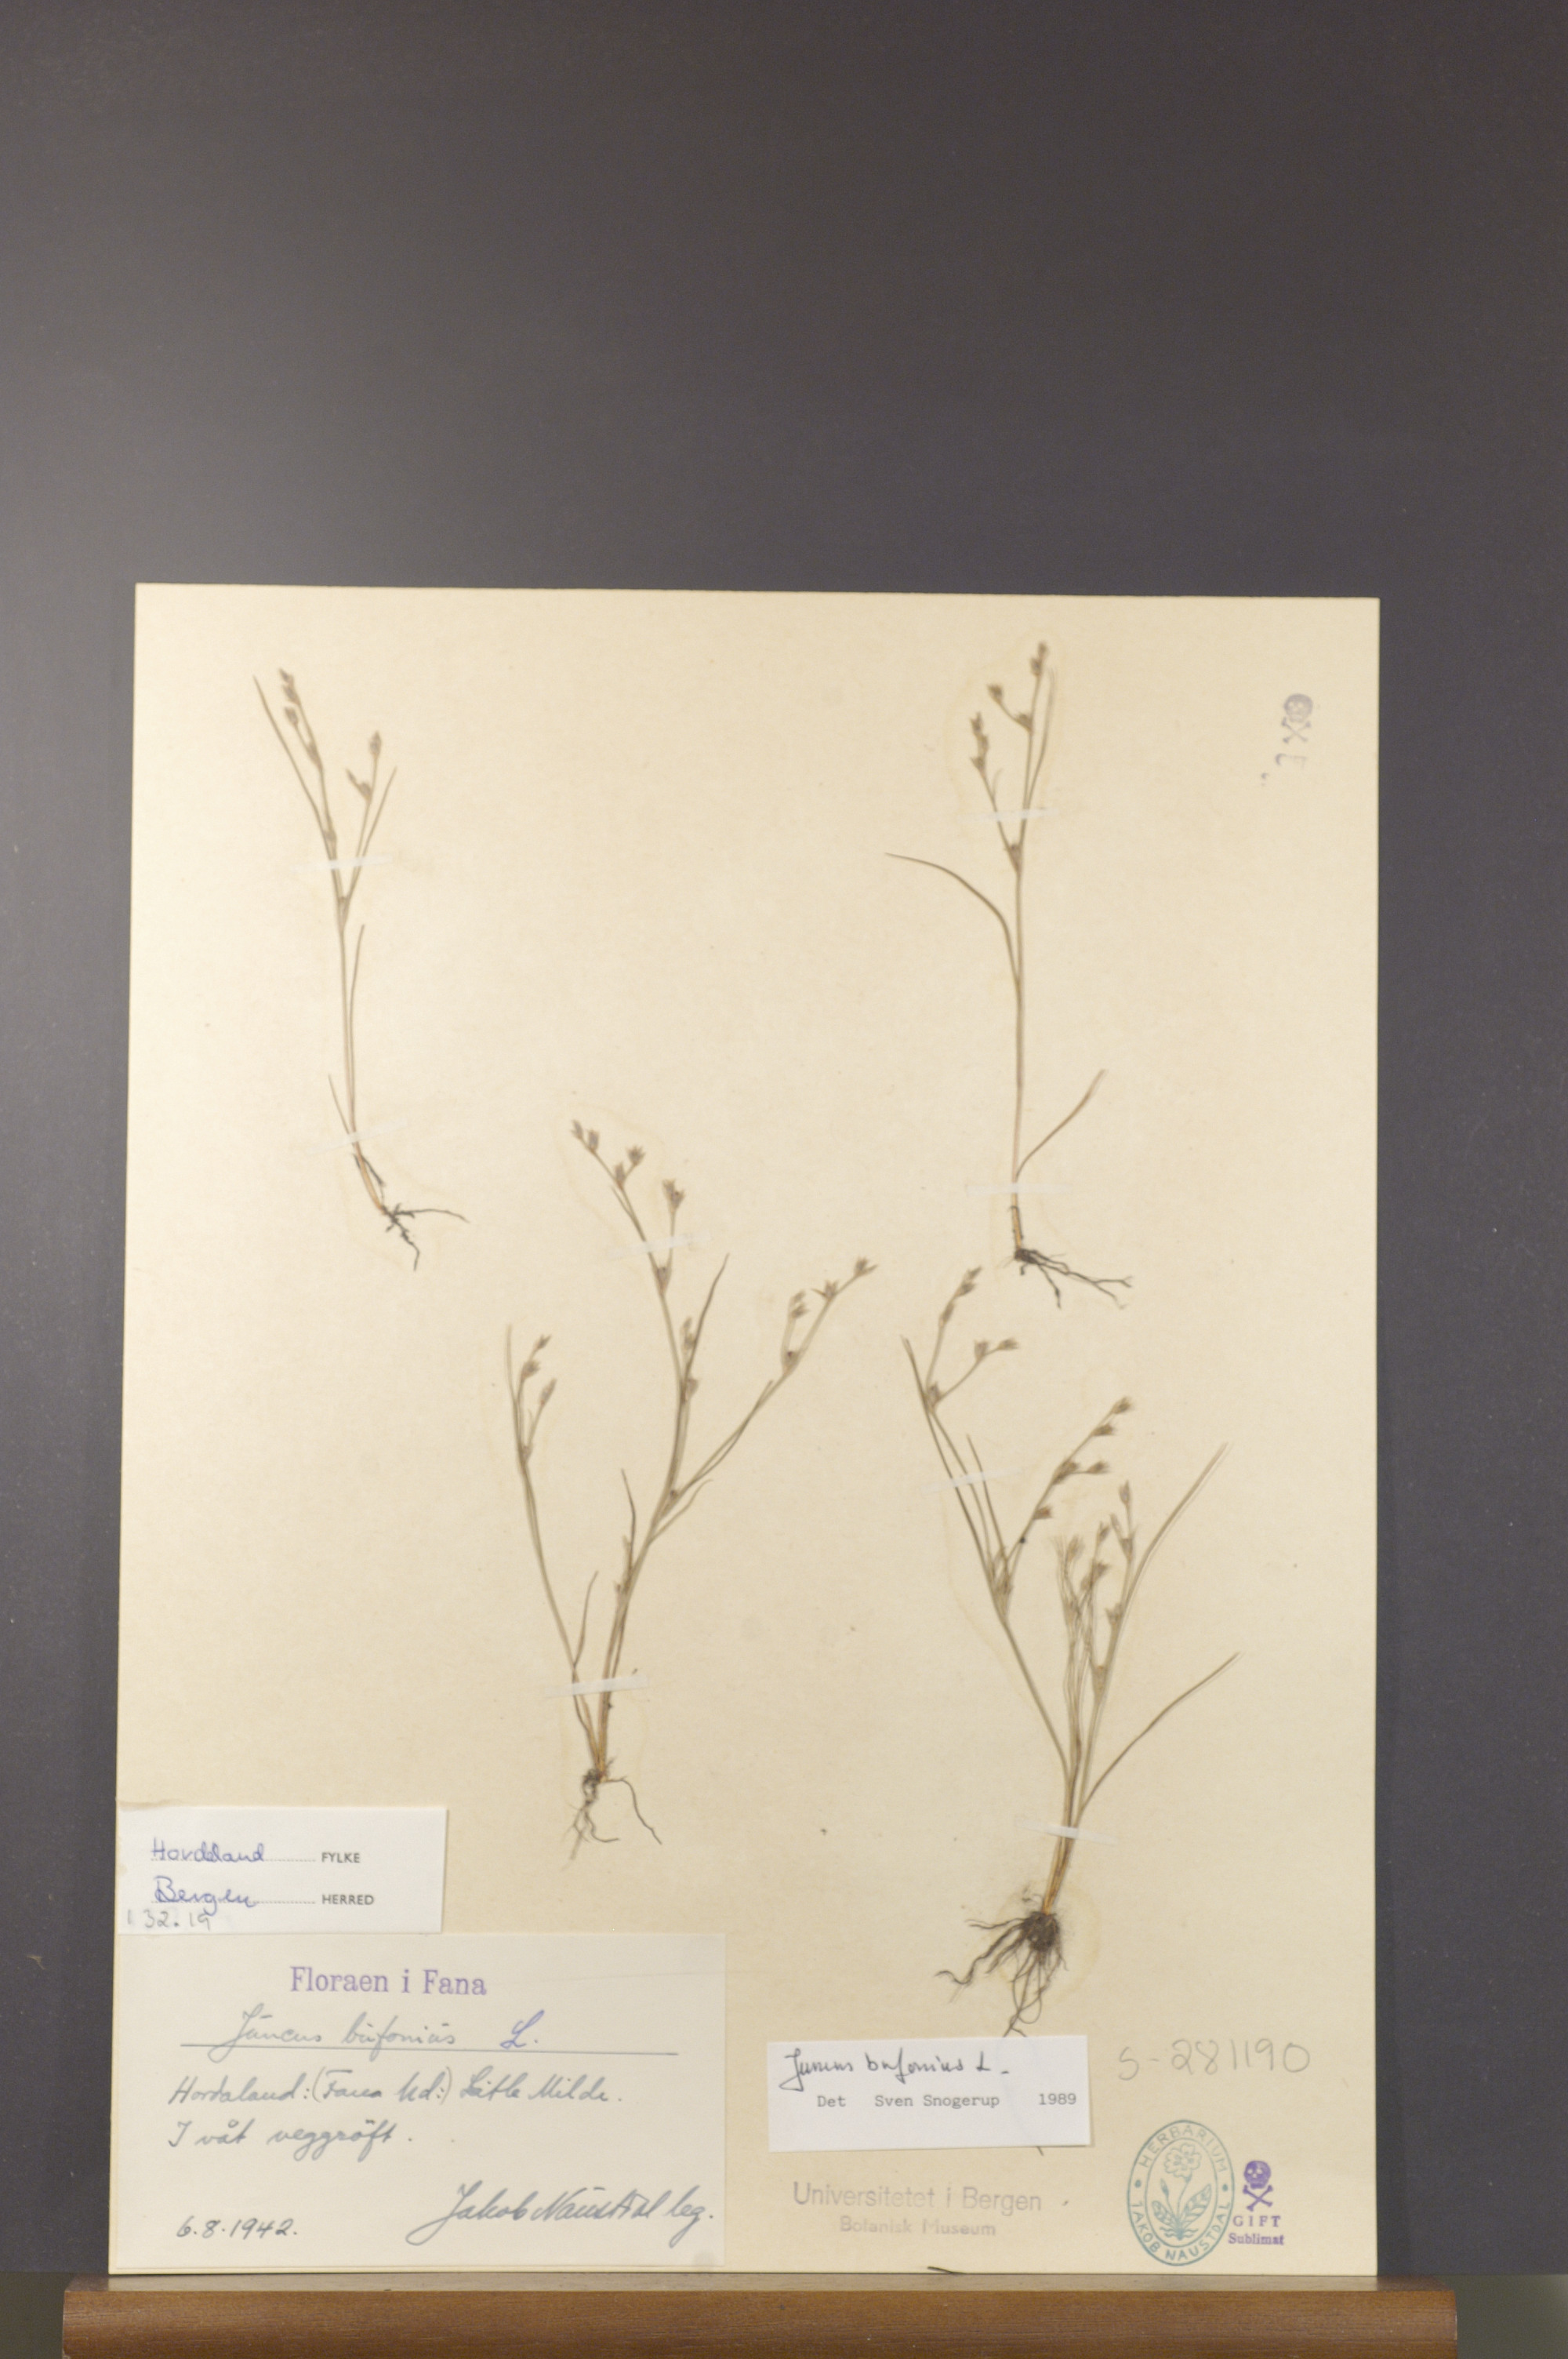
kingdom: Plantae
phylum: Tracheophyta
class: Liliopsida
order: Poales
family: Juncaceae
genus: Juncus
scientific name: Juncus bufonius
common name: Toad rush
